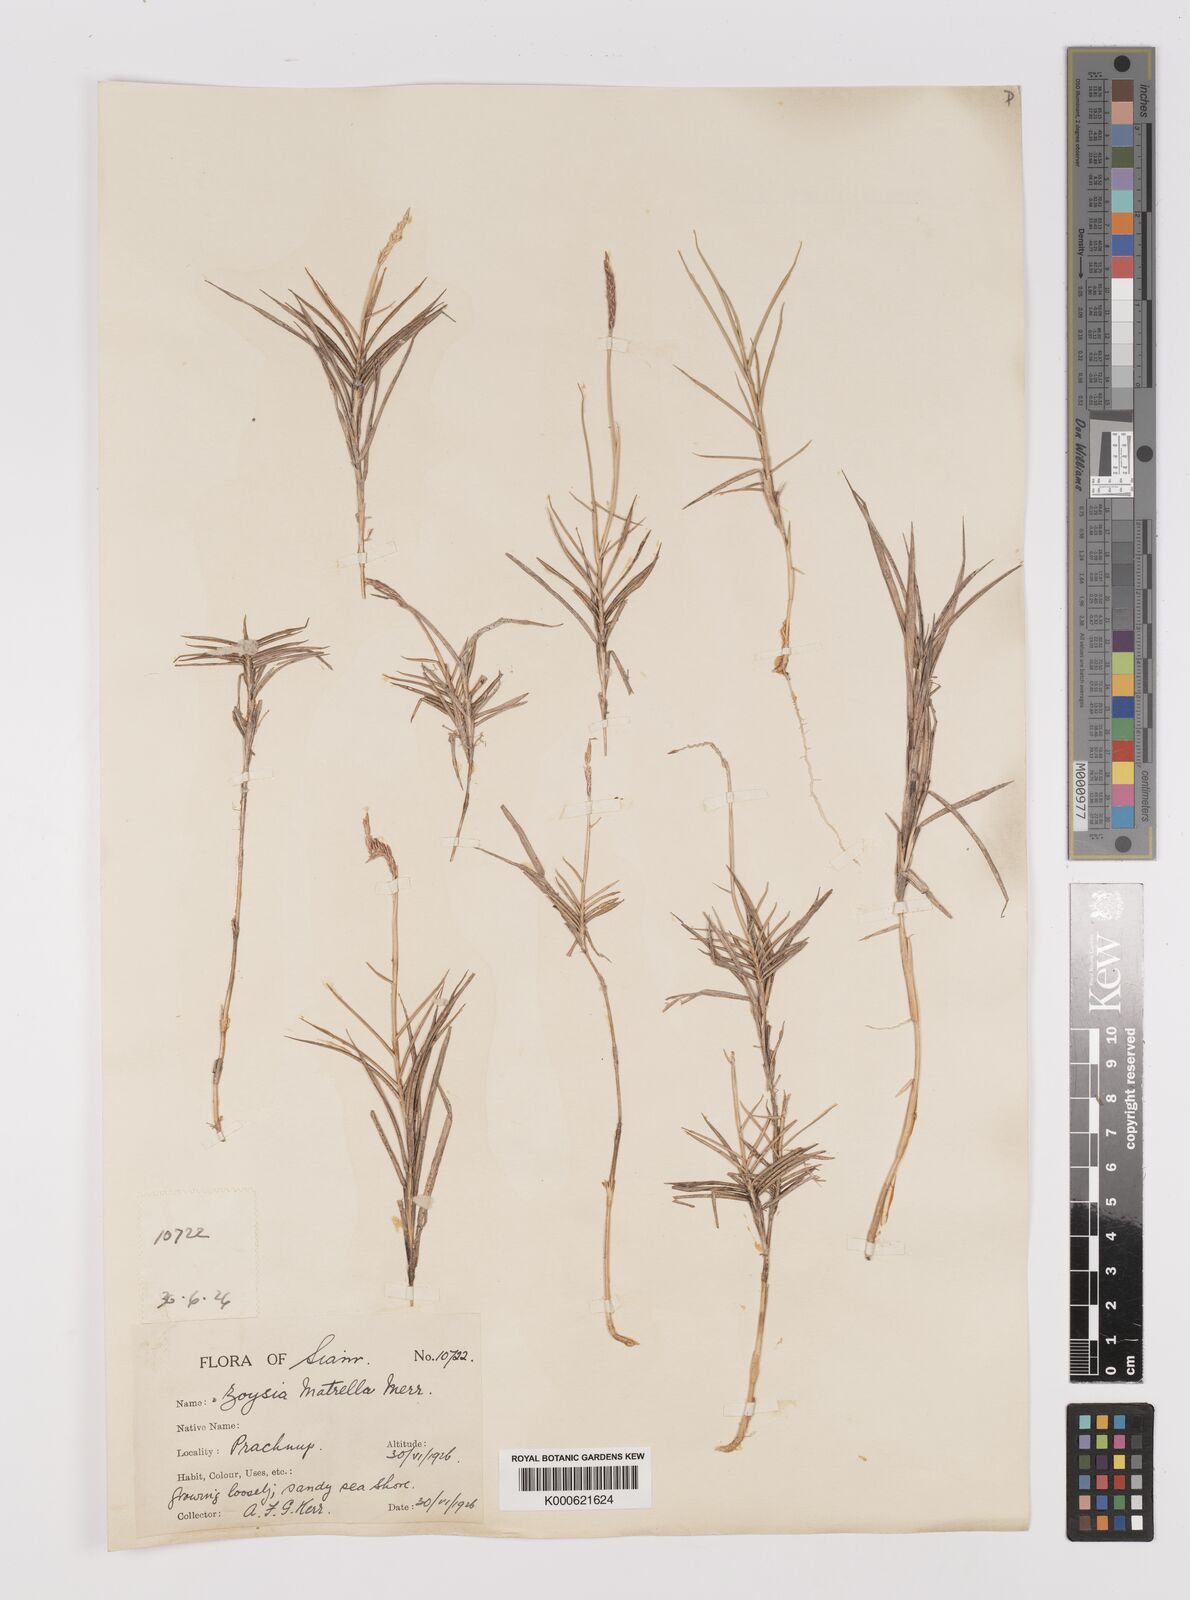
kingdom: Plantae
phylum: Tracheophyta
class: Liliopsida
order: Poales
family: Poaceae
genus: Zoysia
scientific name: Zoysia matrella
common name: Manila grass
